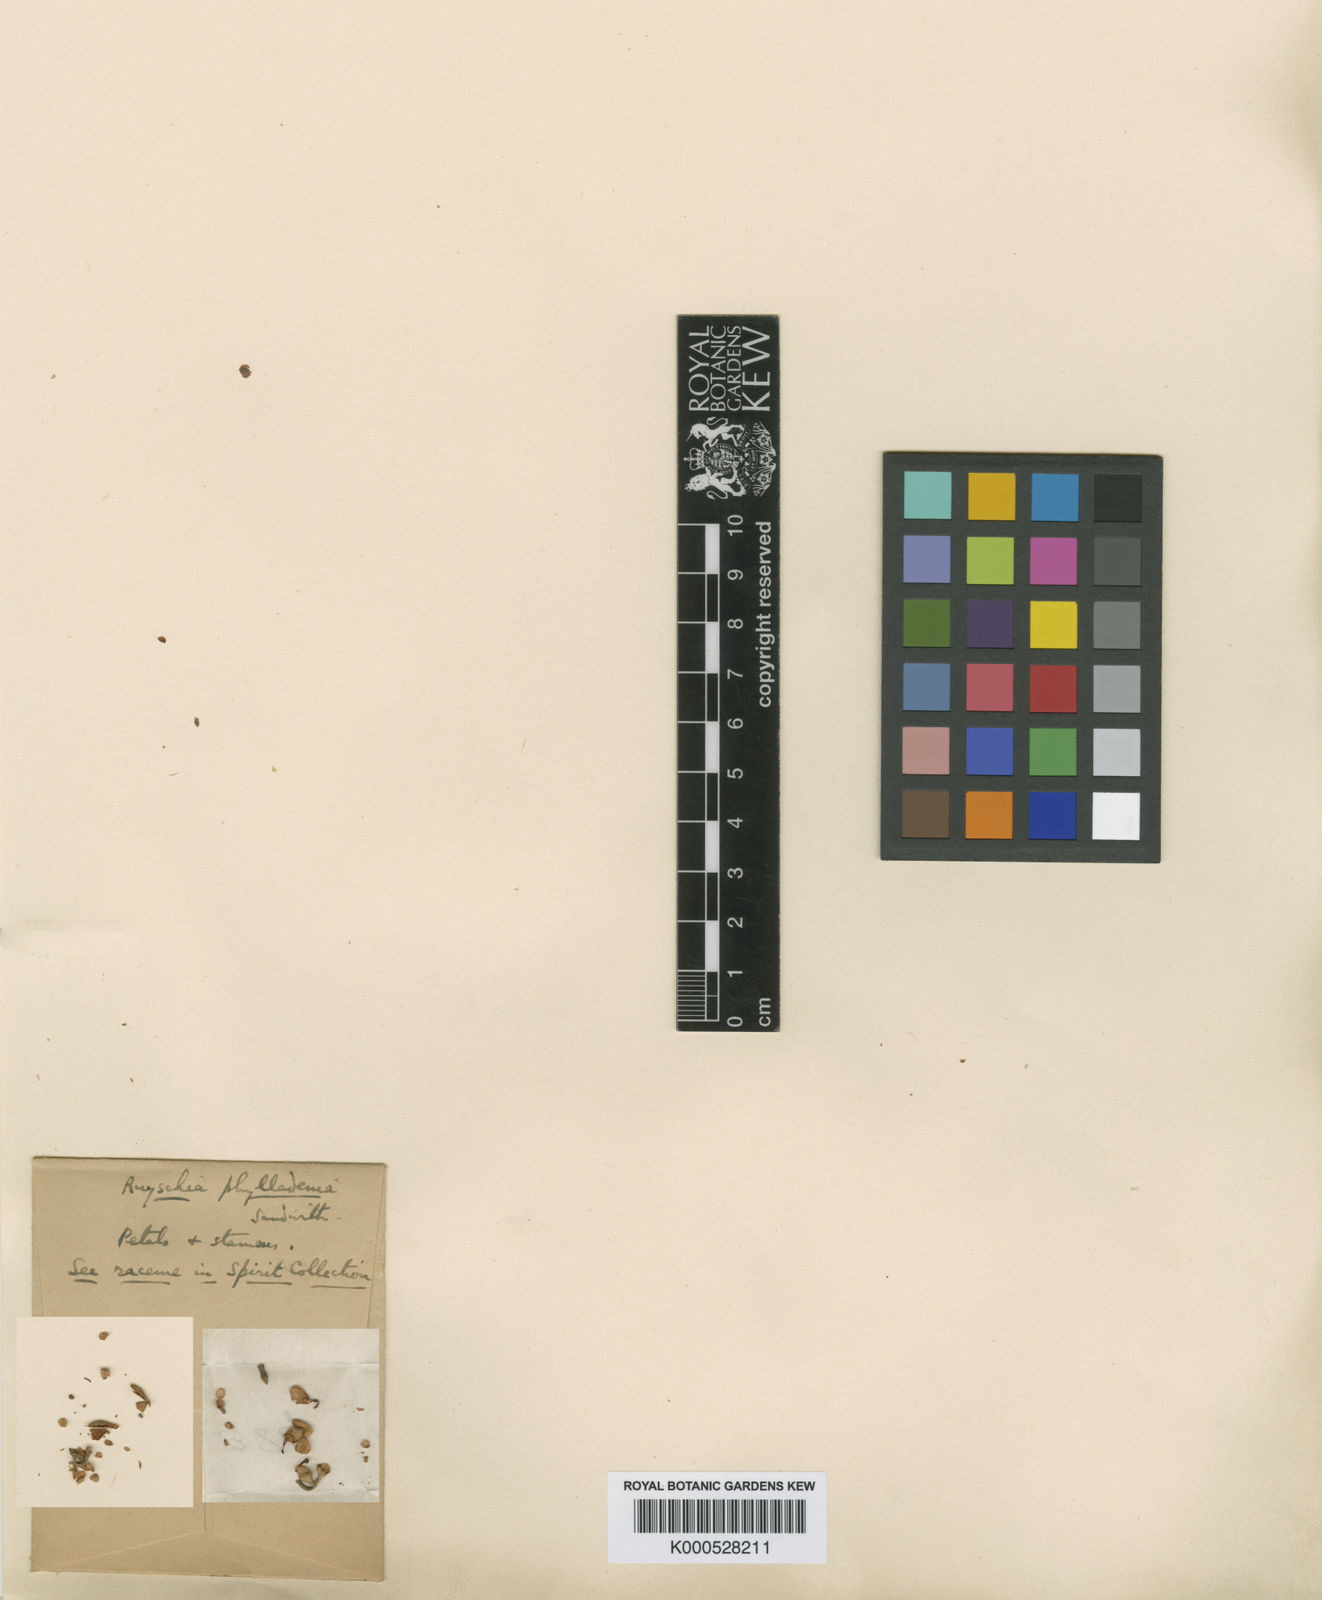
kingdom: Plantae
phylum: Tracheophyta
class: Magnoliopsida
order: Ericales
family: Marcgraviaceae
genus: Ruyschia
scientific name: Ruyschia phylladenia
